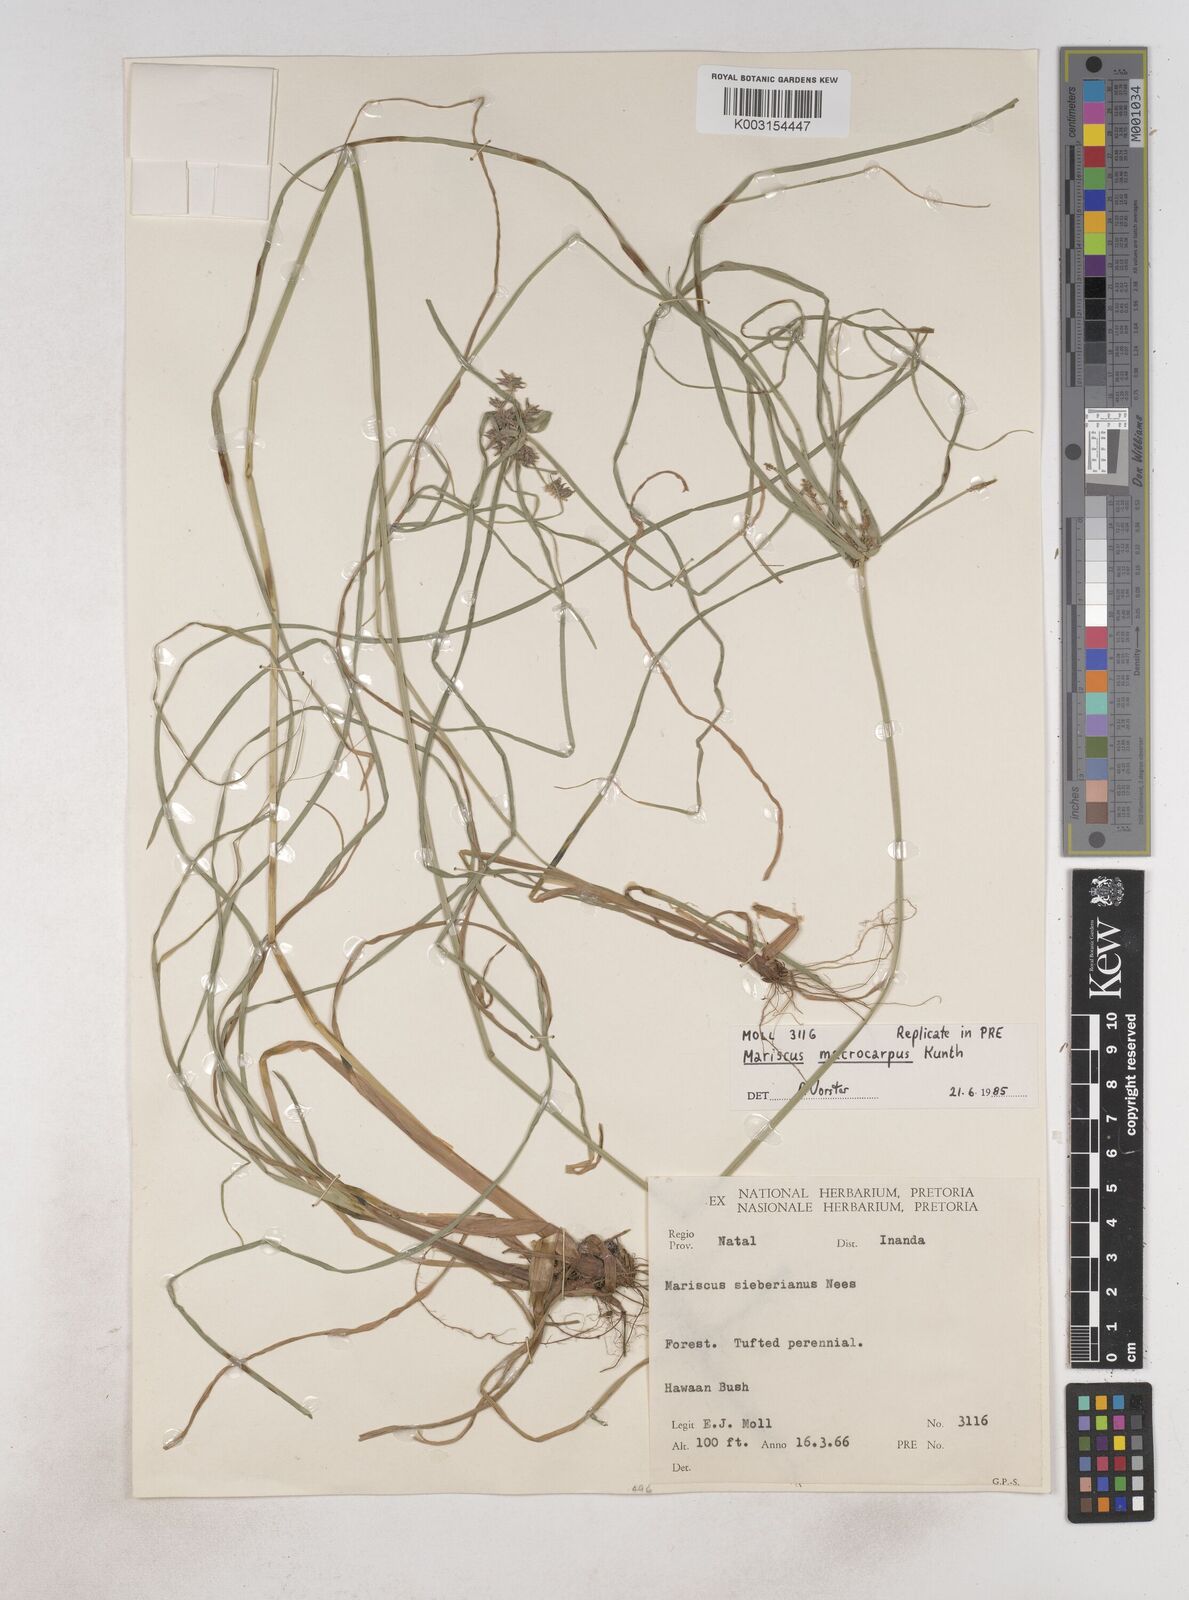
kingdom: Plantae
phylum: Tracheophyta
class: Liliopsida
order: Poales
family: Cyperaceae
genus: Cyperus
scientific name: Cyperus macrocarpus
